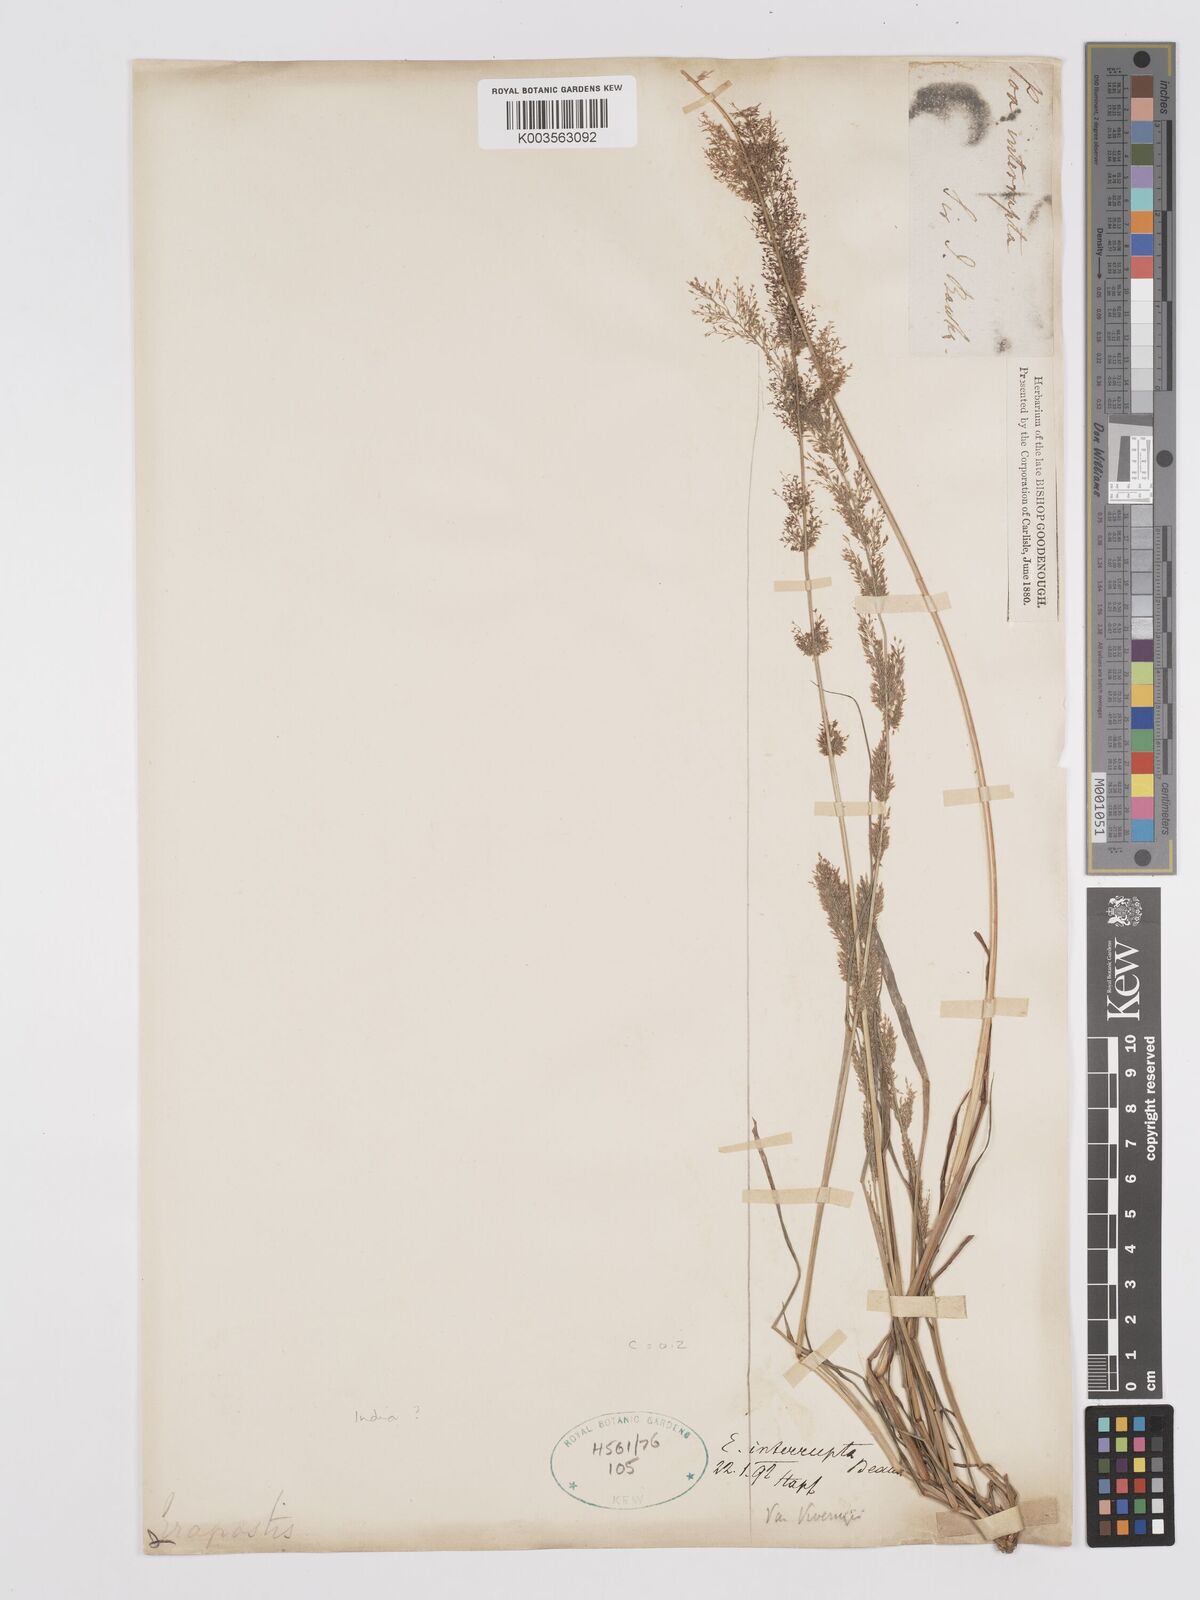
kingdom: Plantae
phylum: Tracheophyta
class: Liliopsida
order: Poales
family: Poaceae
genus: Eragrostis
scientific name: Eragrostis japonica
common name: Pond lovegrass
